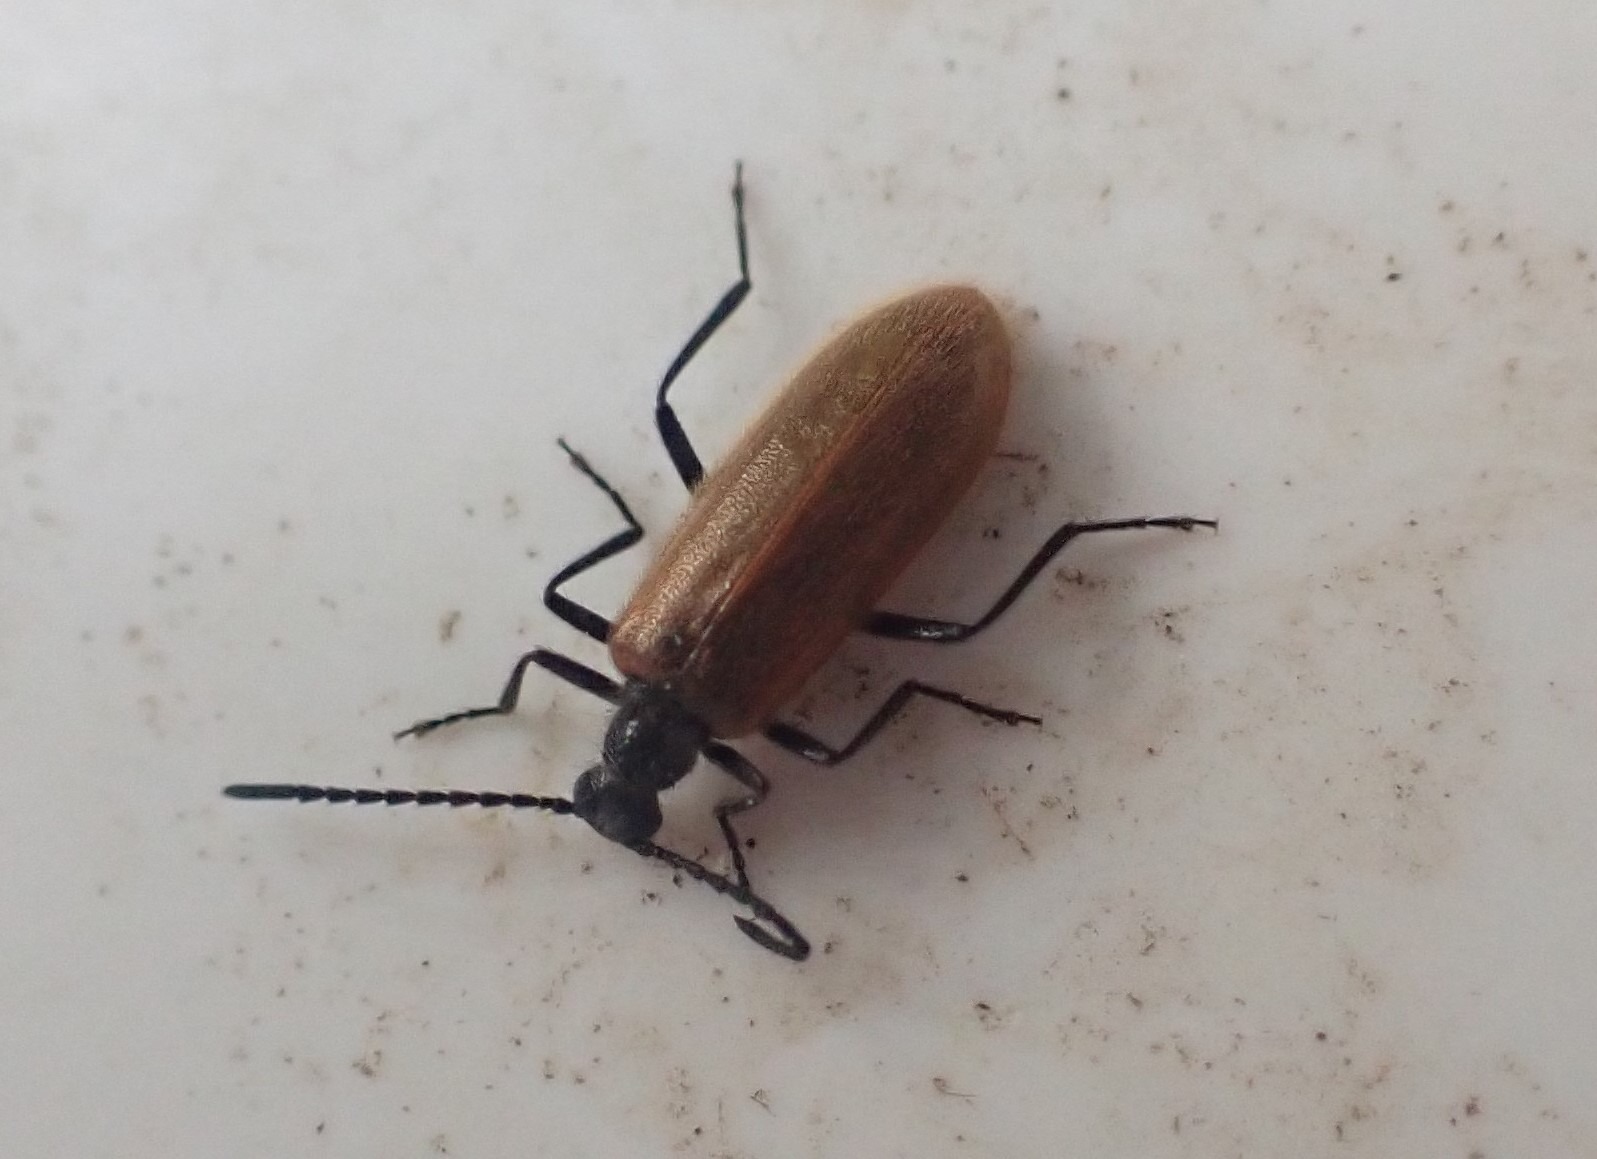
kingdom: Animalia
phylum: Arthropoda
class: Insecta
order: Coleoptera
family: Tenebrionidae
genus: Lagria
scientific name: Lagria hirta
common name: Håret skyggebille
